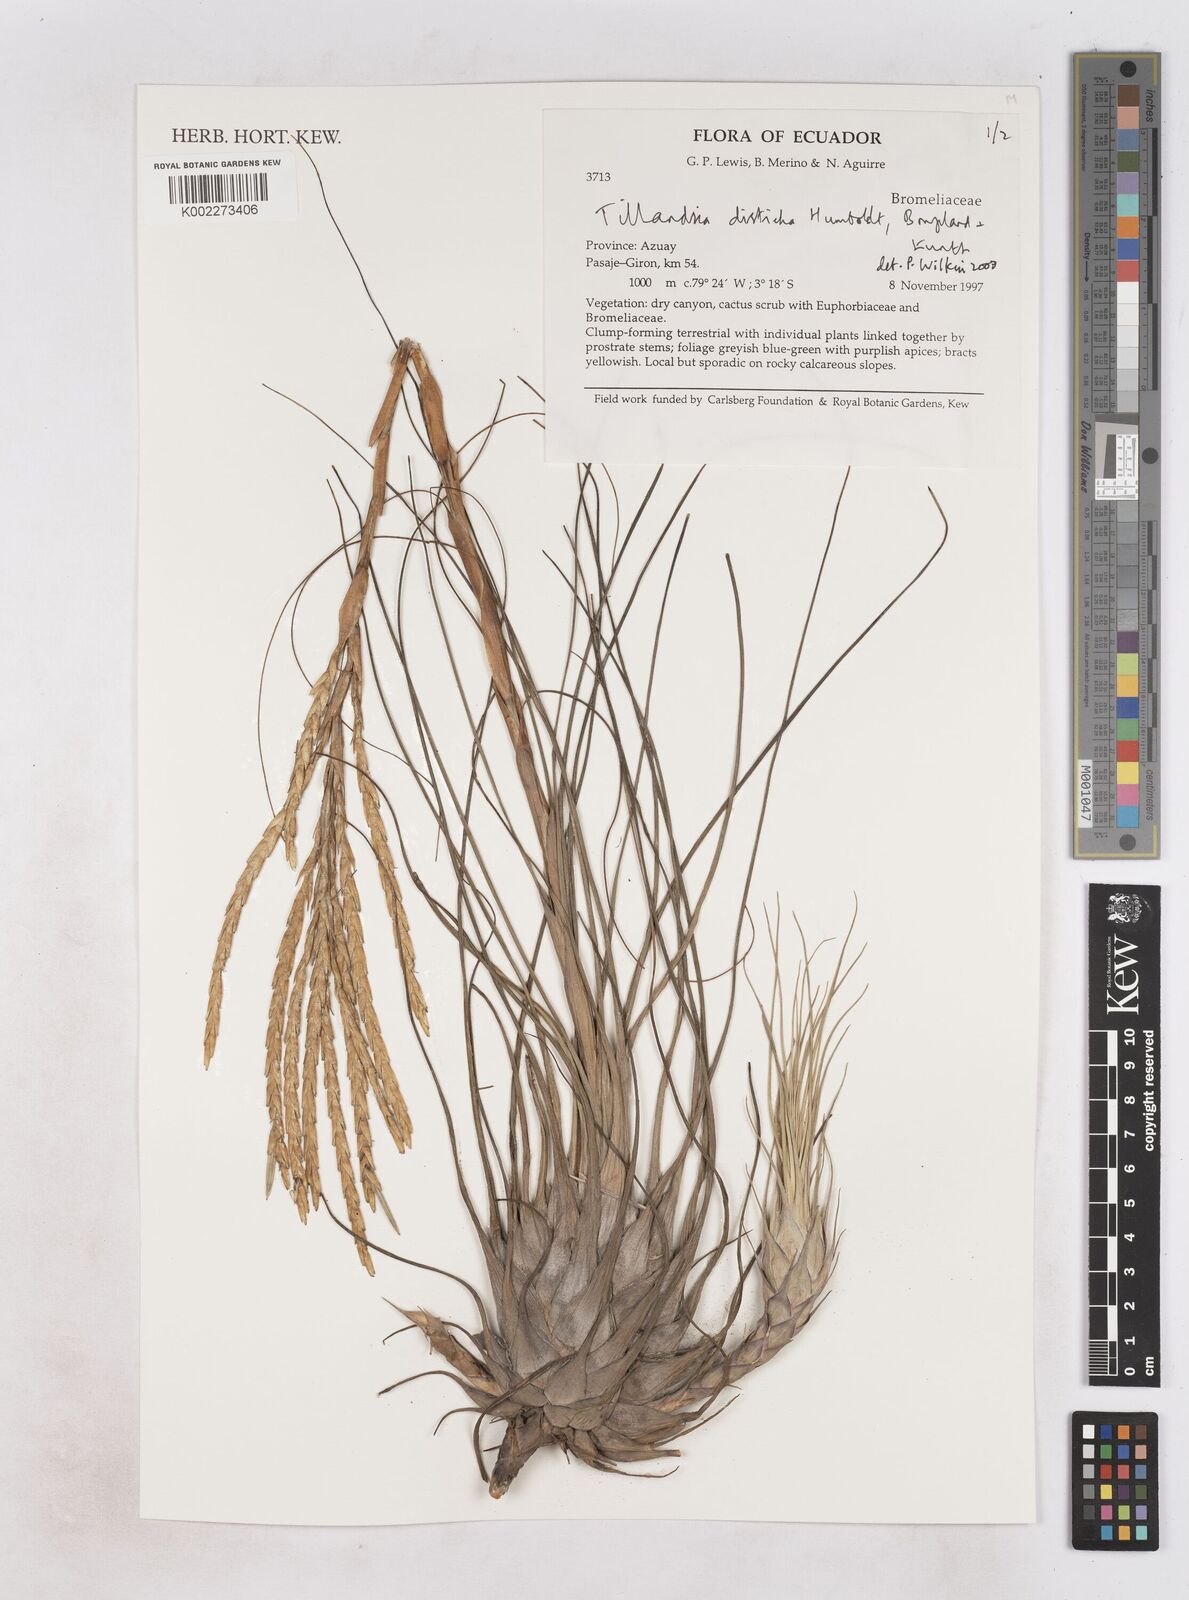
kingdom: Plantae
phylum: Tracheophyta
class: Liliopsida
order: Poales
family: Bromeliaceae
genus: Tillandsia
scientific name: Tillandsia
